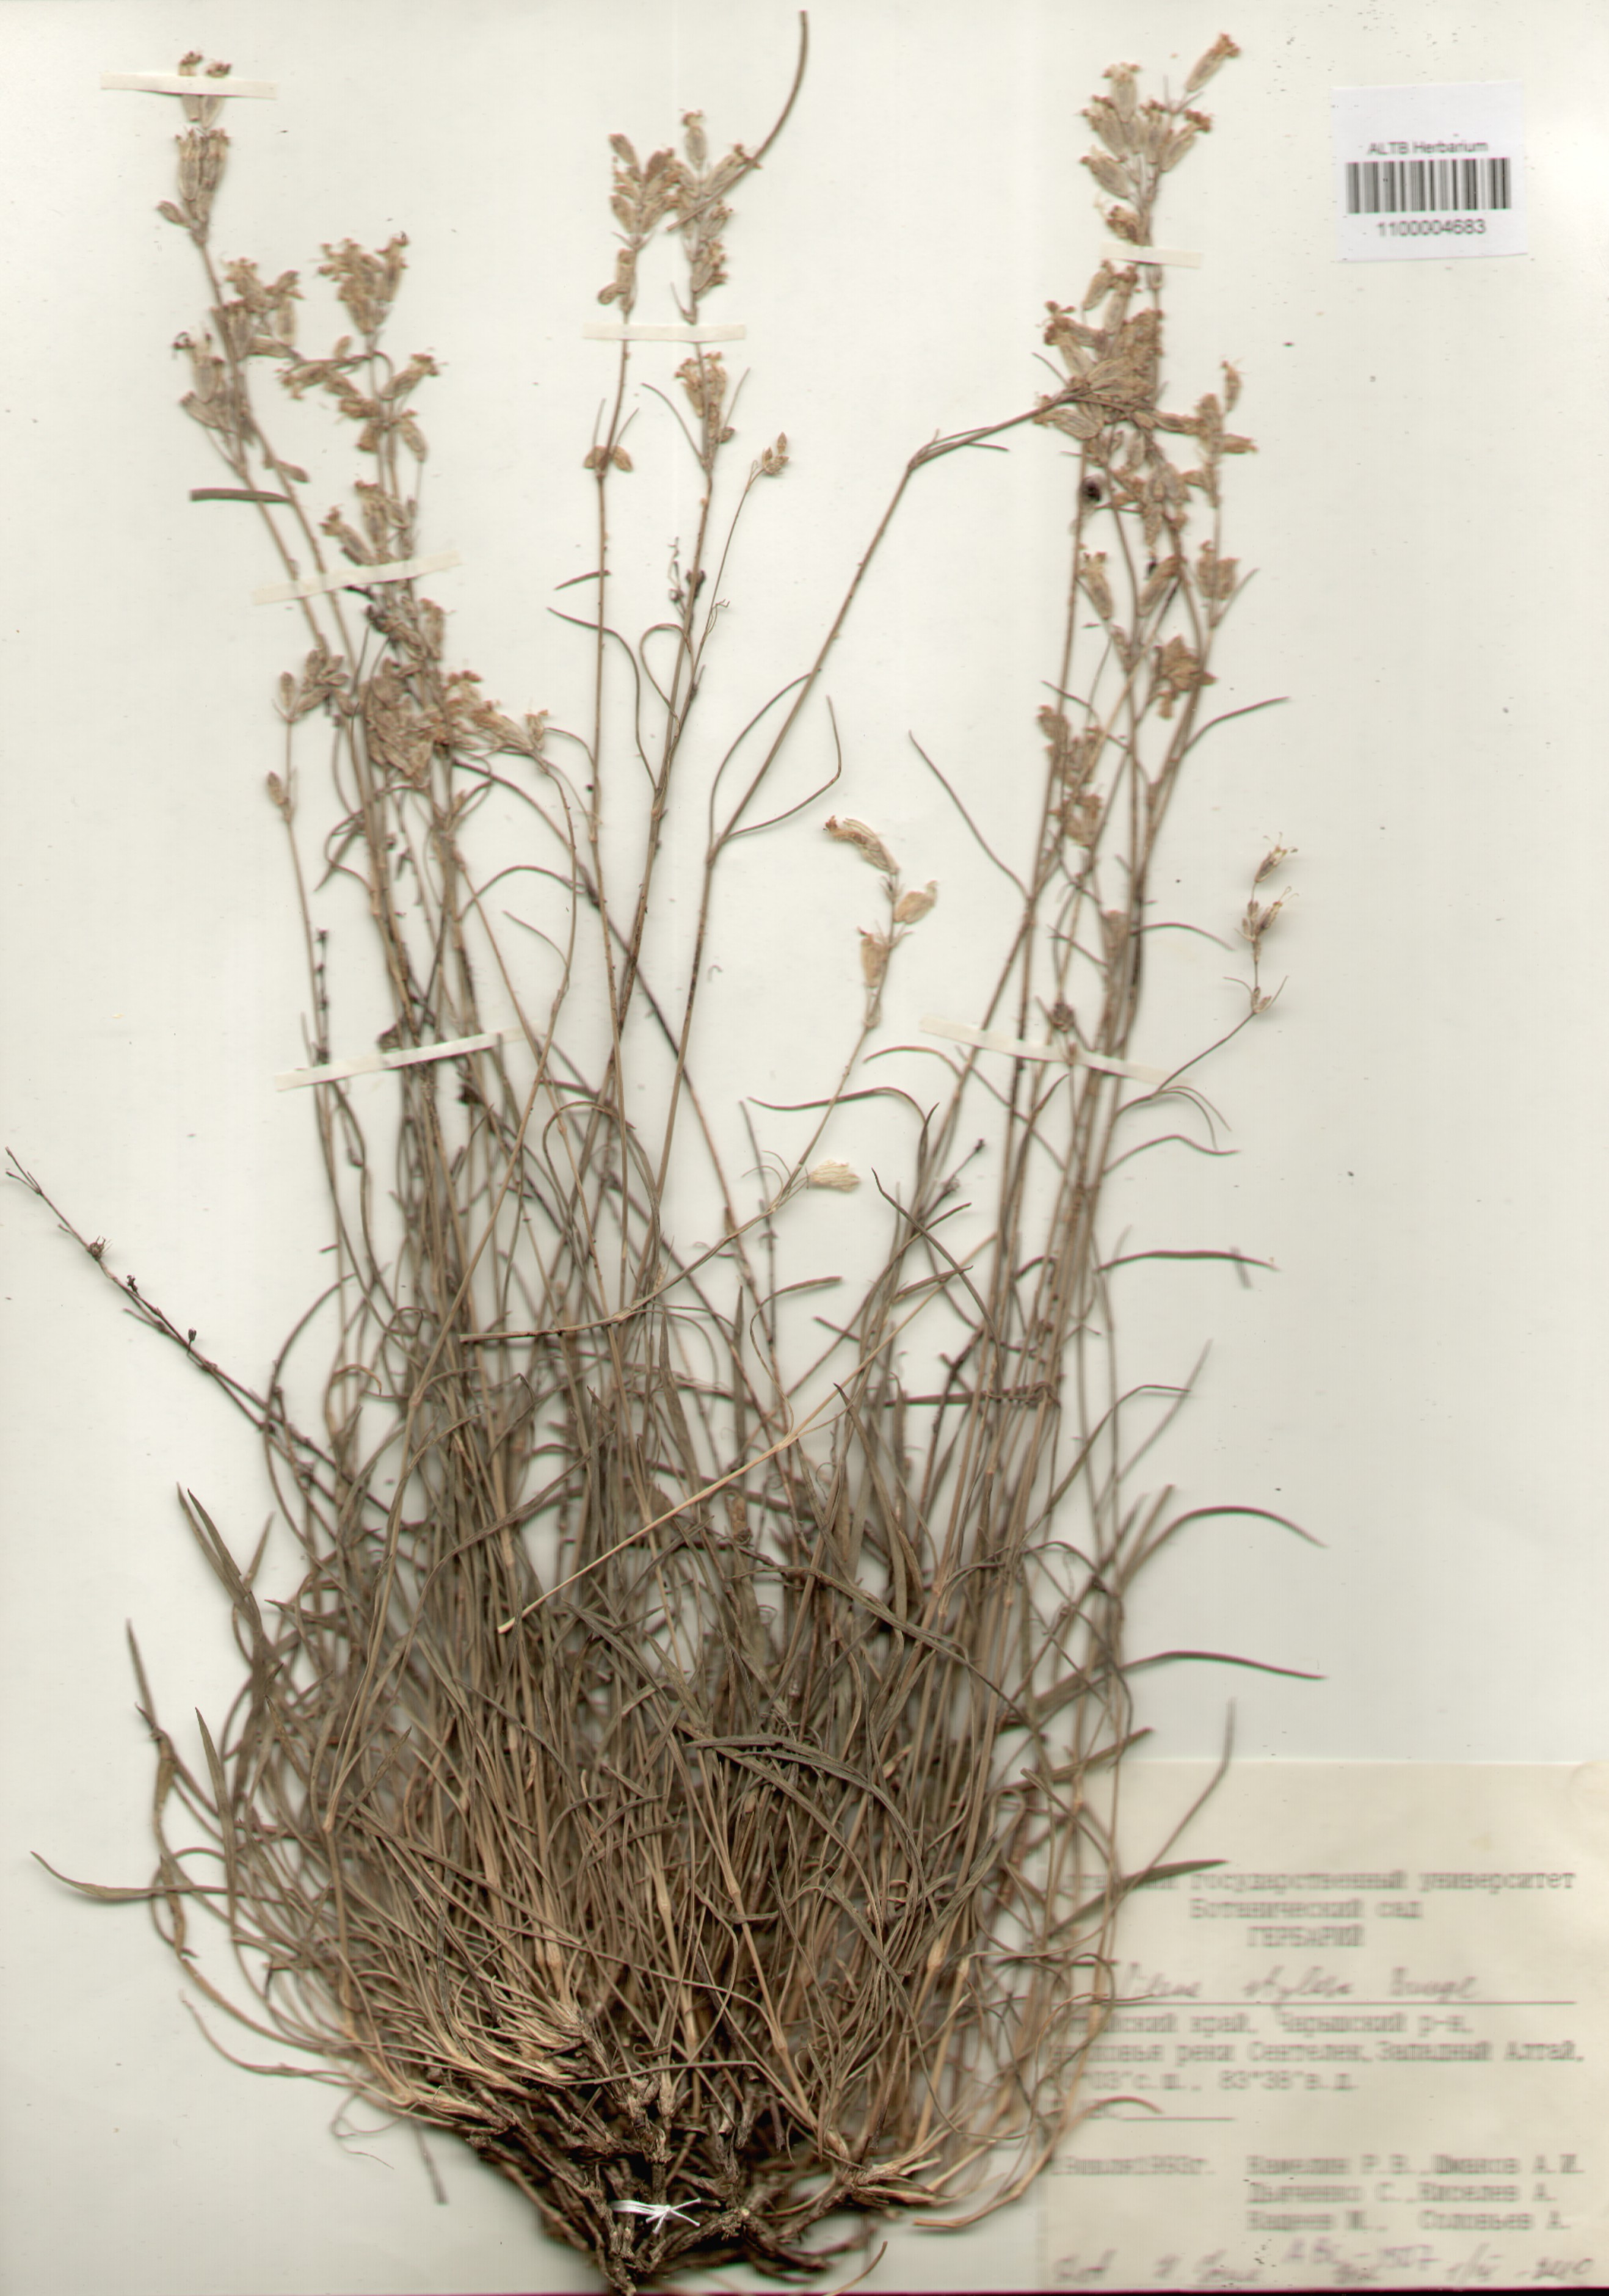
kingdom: Plantae
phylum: Tracheophyta
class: Magnoliopsida
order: Caryophyllales
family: Caryophyllaceae
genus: Silene
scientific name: Silene graminifolia
